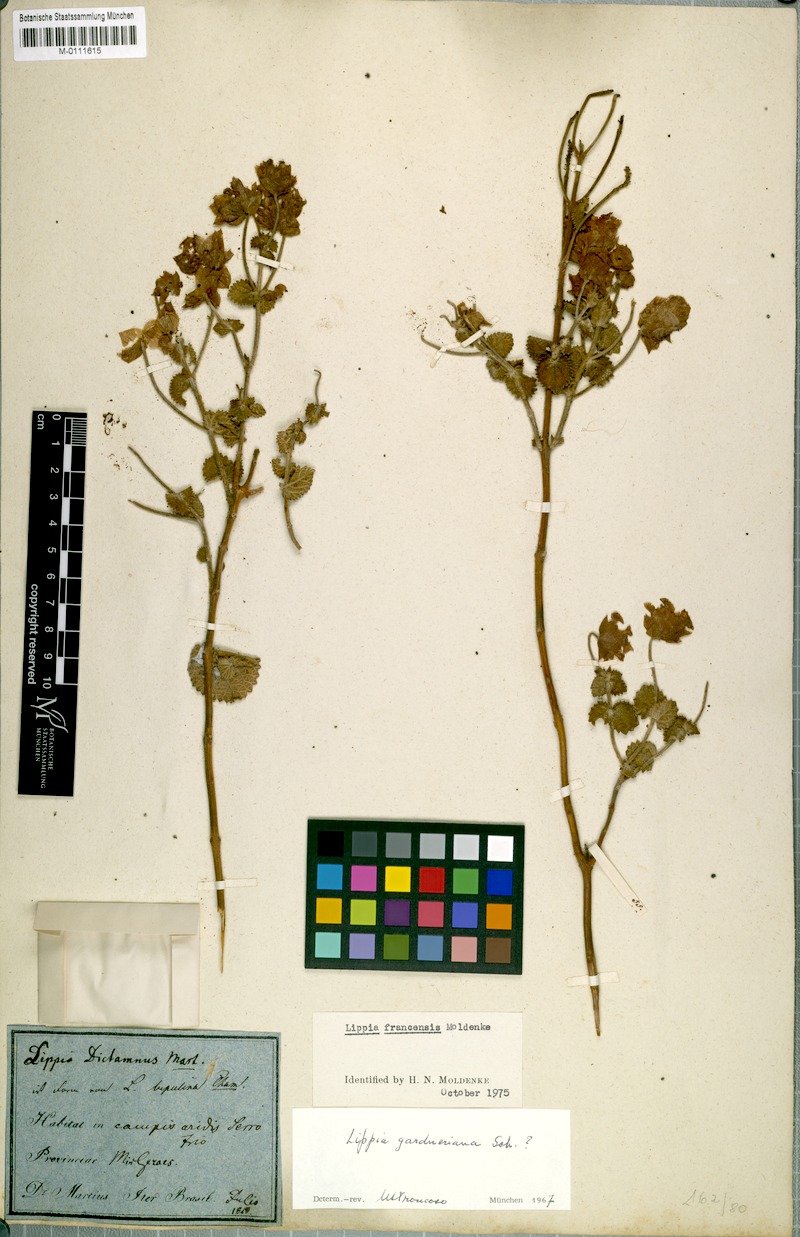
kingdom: Plantae
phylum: Tracheophyta
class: Magnoliopsida
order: Lamiales
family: Verbenaceae
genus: Lippia
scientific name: Lippia renifolia
